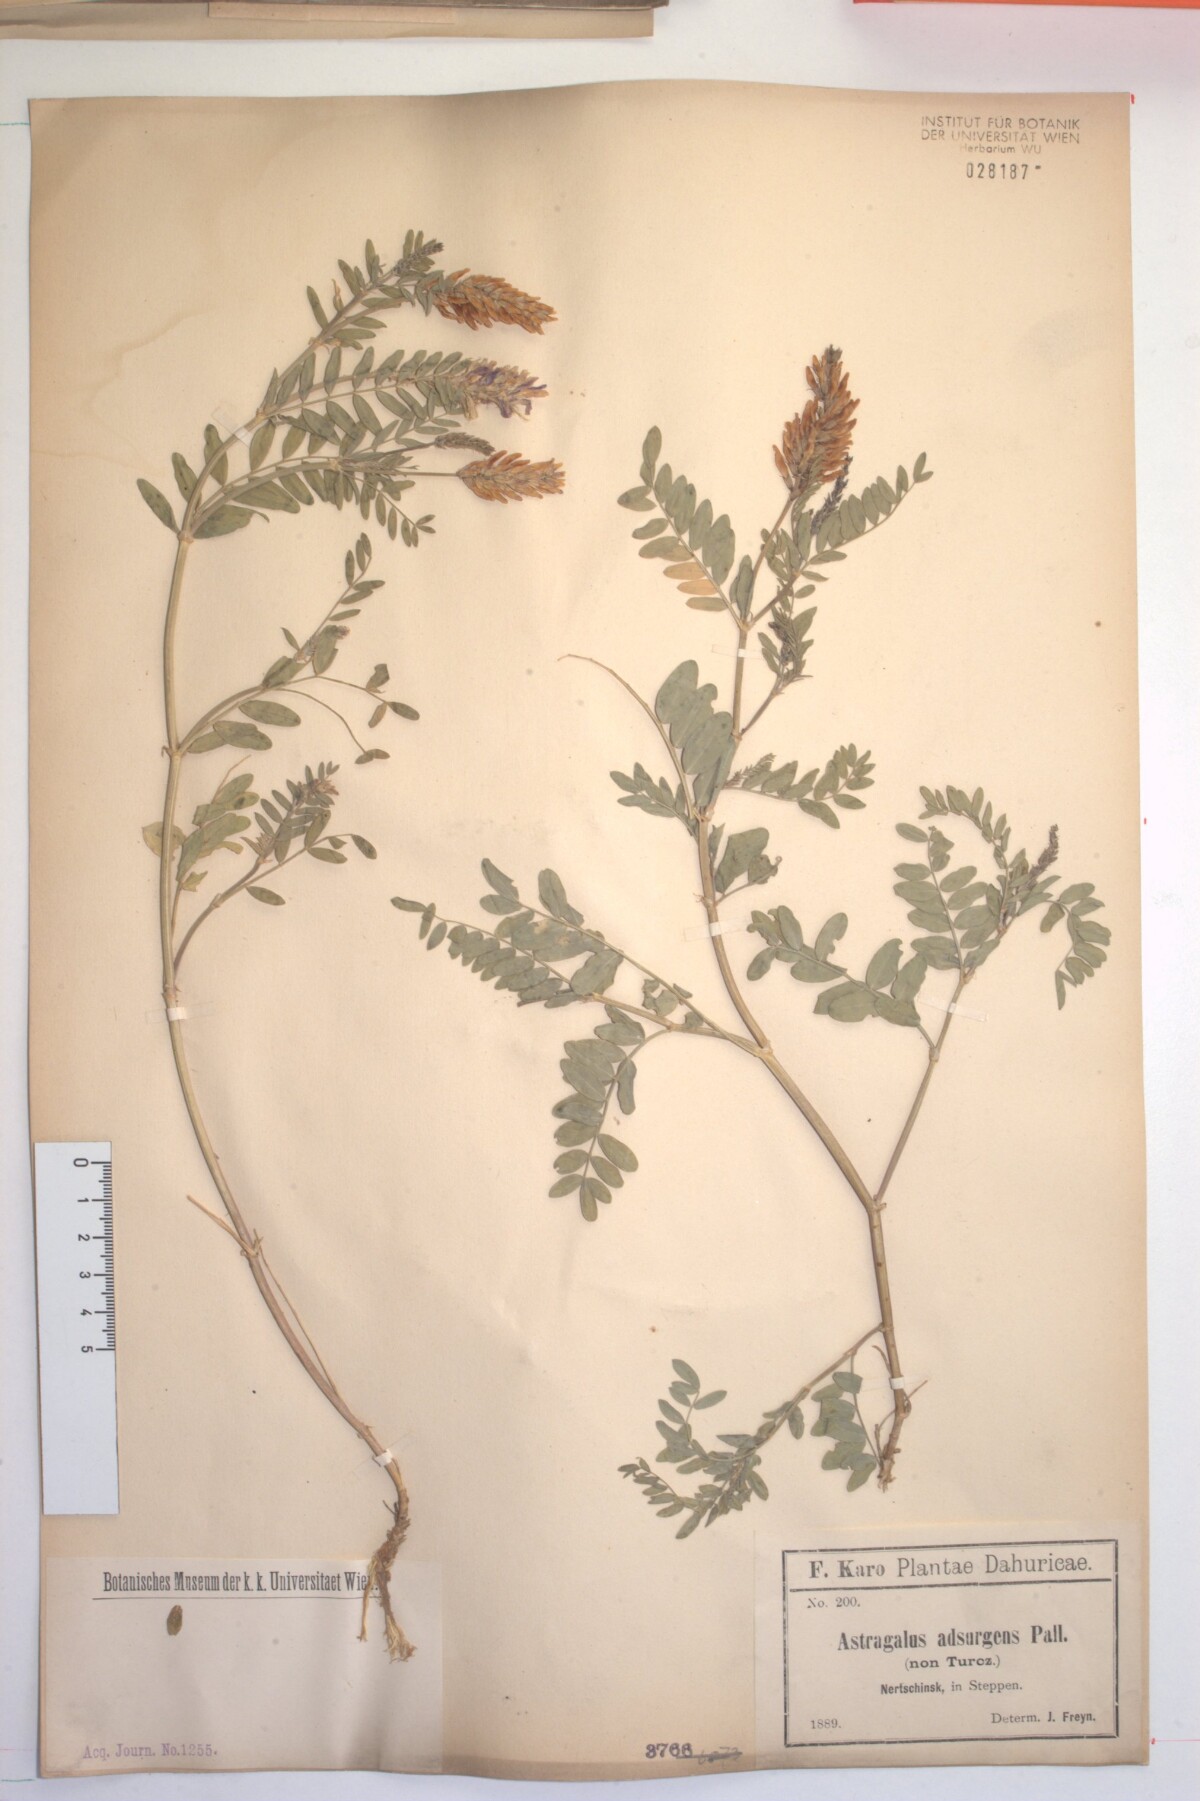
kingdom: Plantae
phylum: Tracheophyta
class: Magnoliopsida
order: Fabales
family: Fabaceae
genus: Astragalus
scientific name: Astragalus laxmannii
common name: Laxmann's milk-vetch
